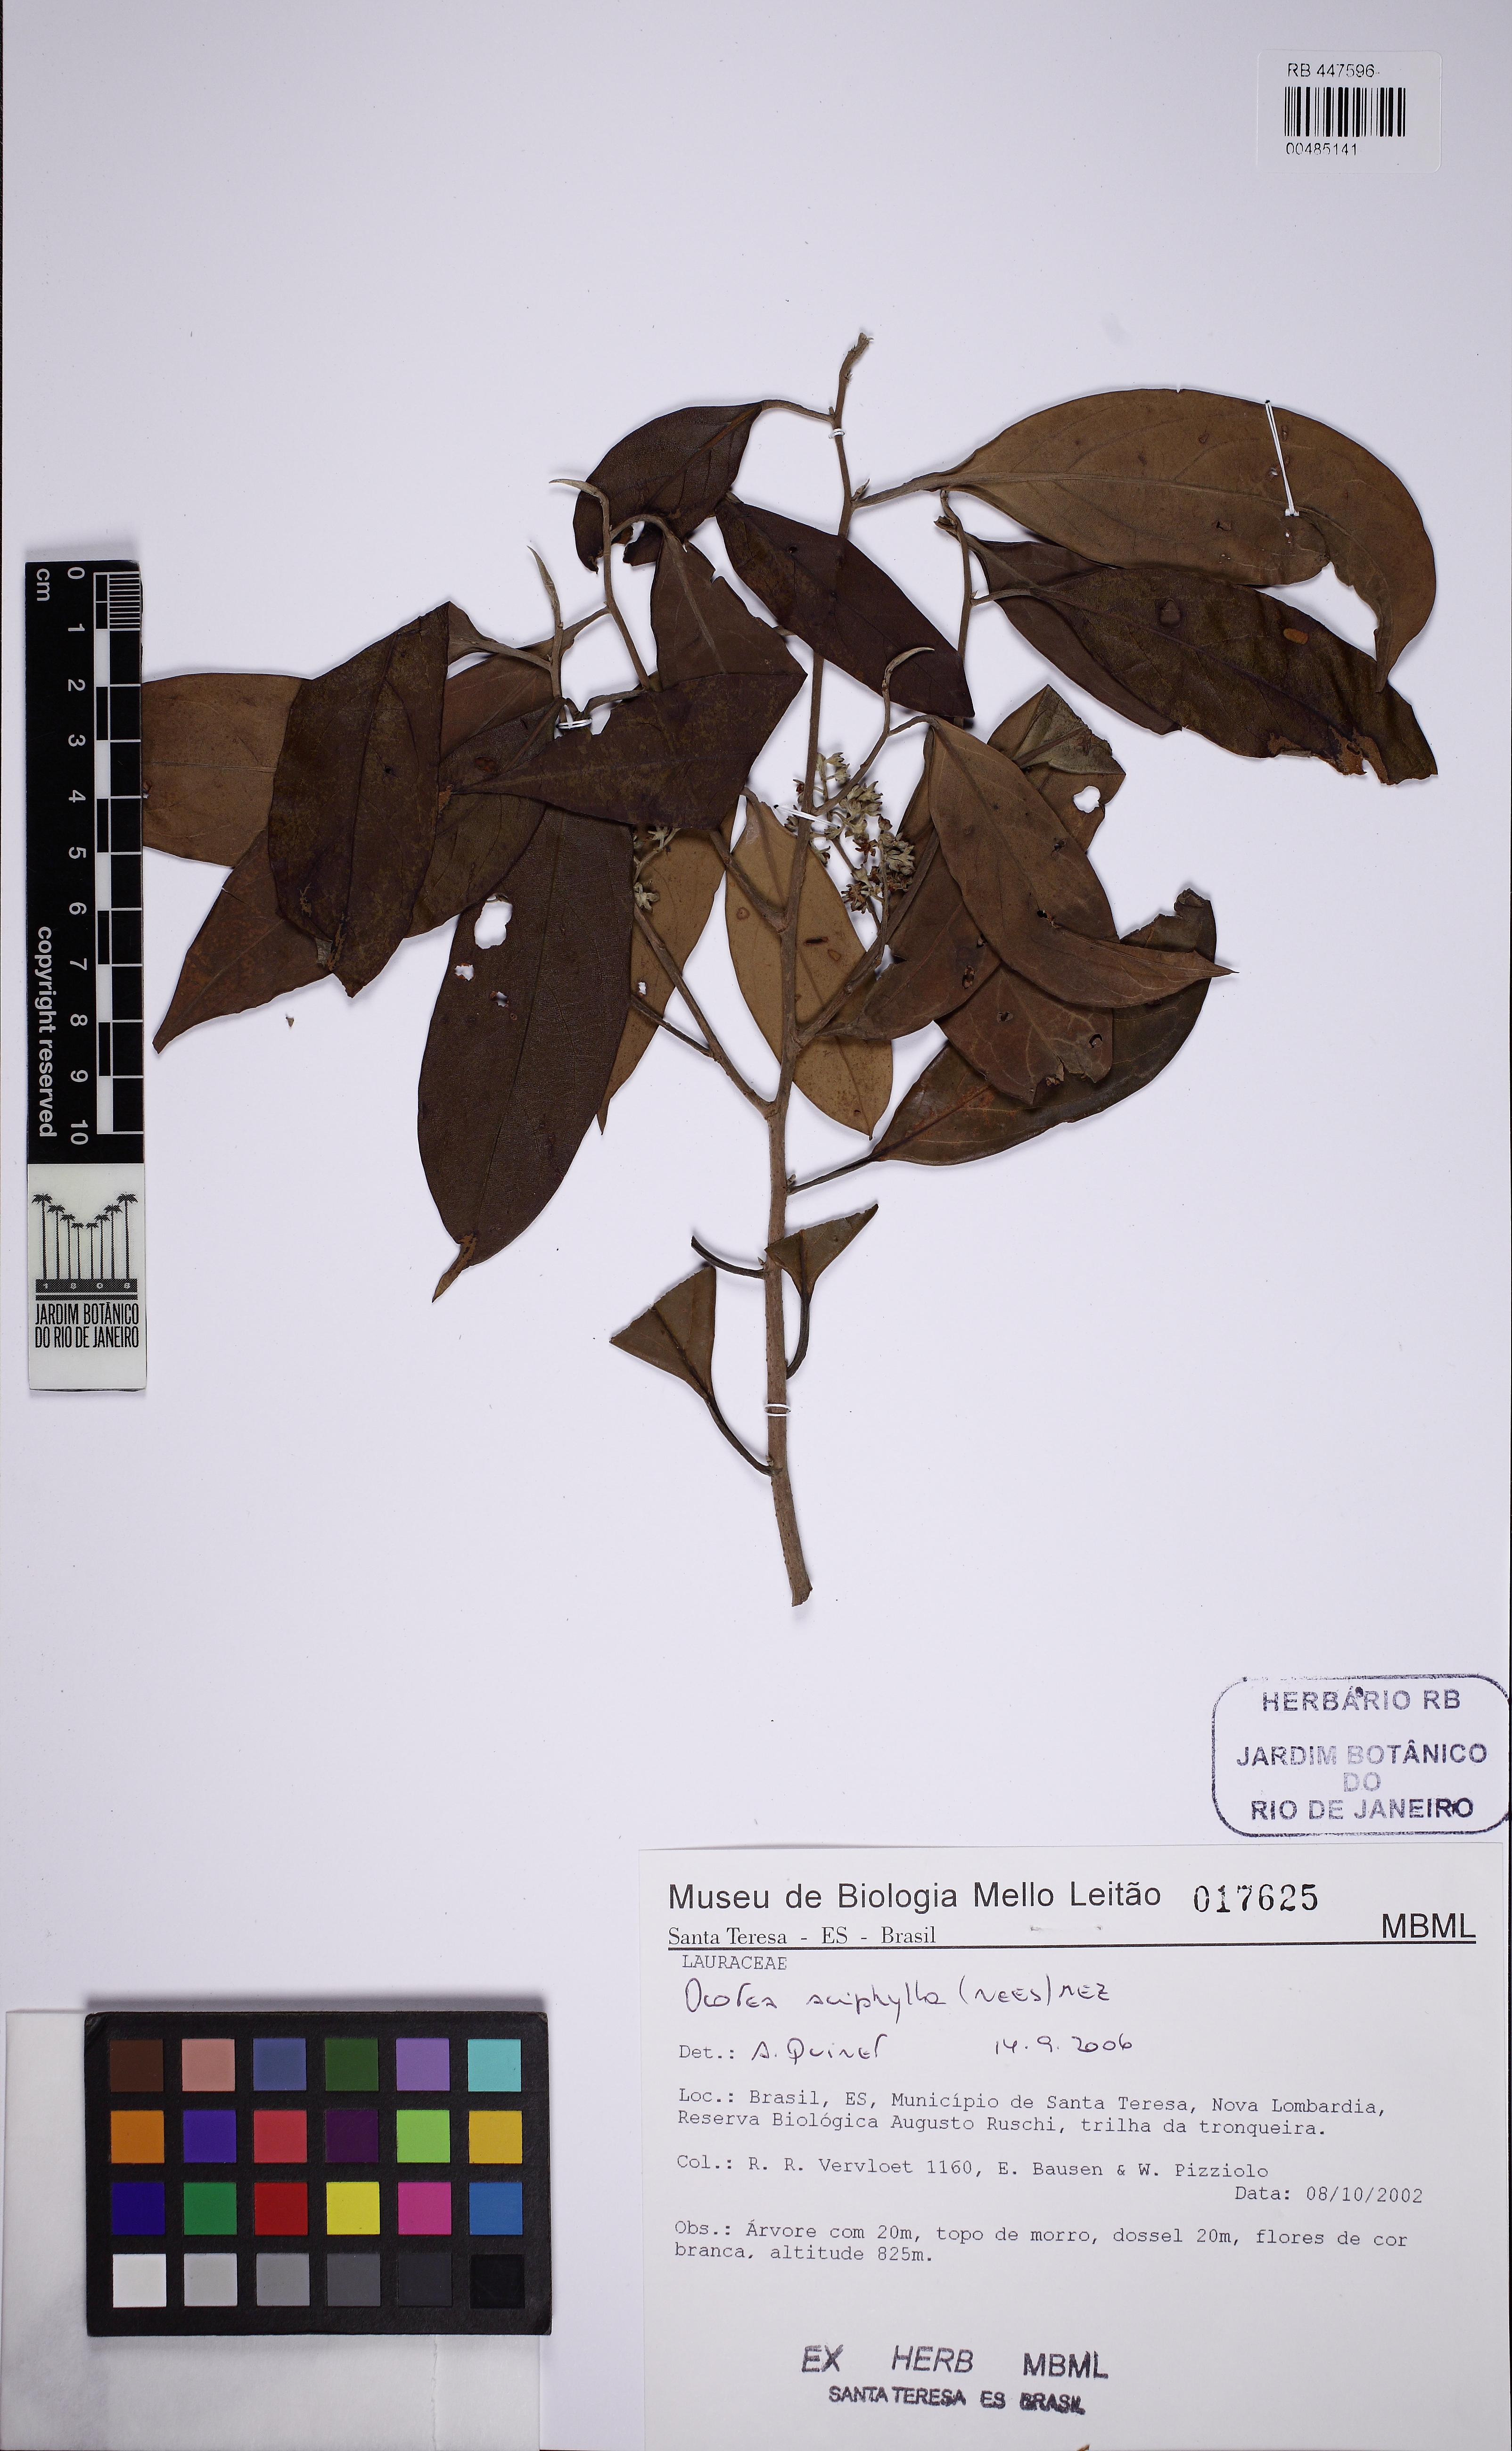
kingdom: Plantae
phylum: Tracheophyta
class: Magnoliopsida
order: Laurales
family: Lauraceae
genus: Ocotea
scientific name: Ocotea aciphylla
